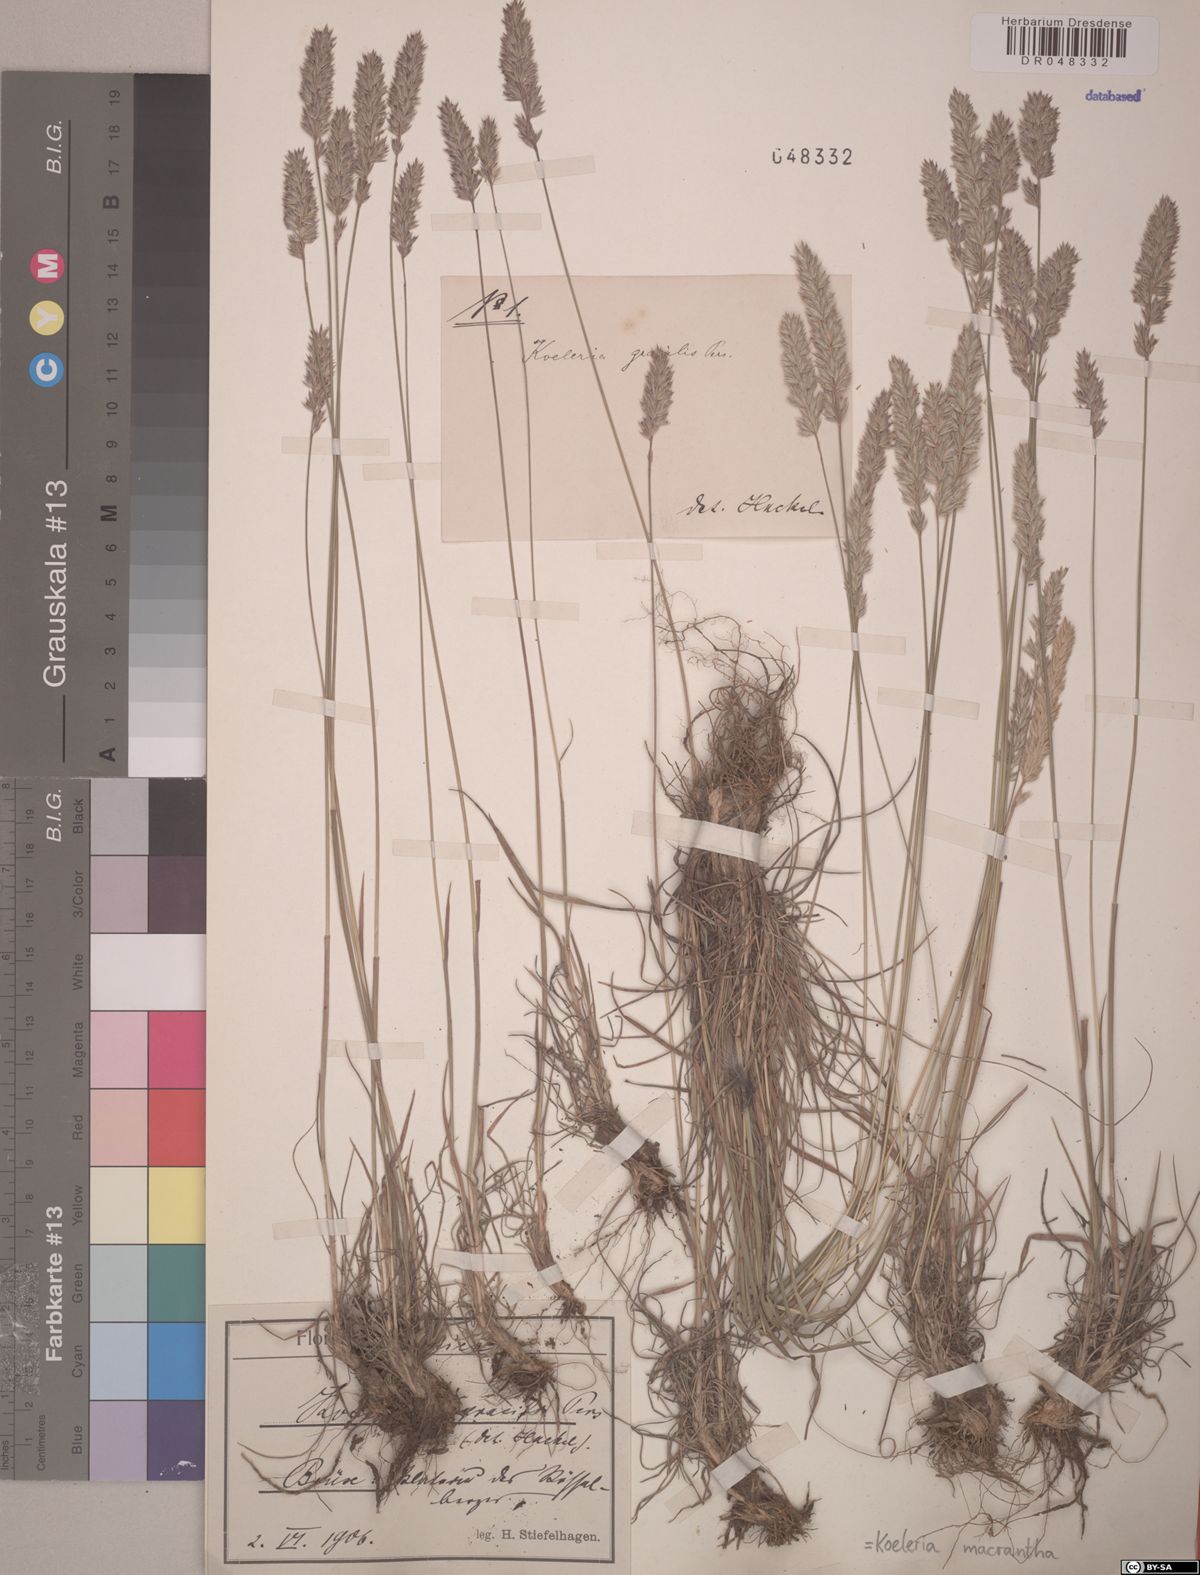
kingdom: Plantae
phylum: Tracheophyta
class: Liliopsida
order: Poales
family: Poaceae
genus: Koeleria
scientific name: Koeleria macrantha
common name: Crested hair-grass
